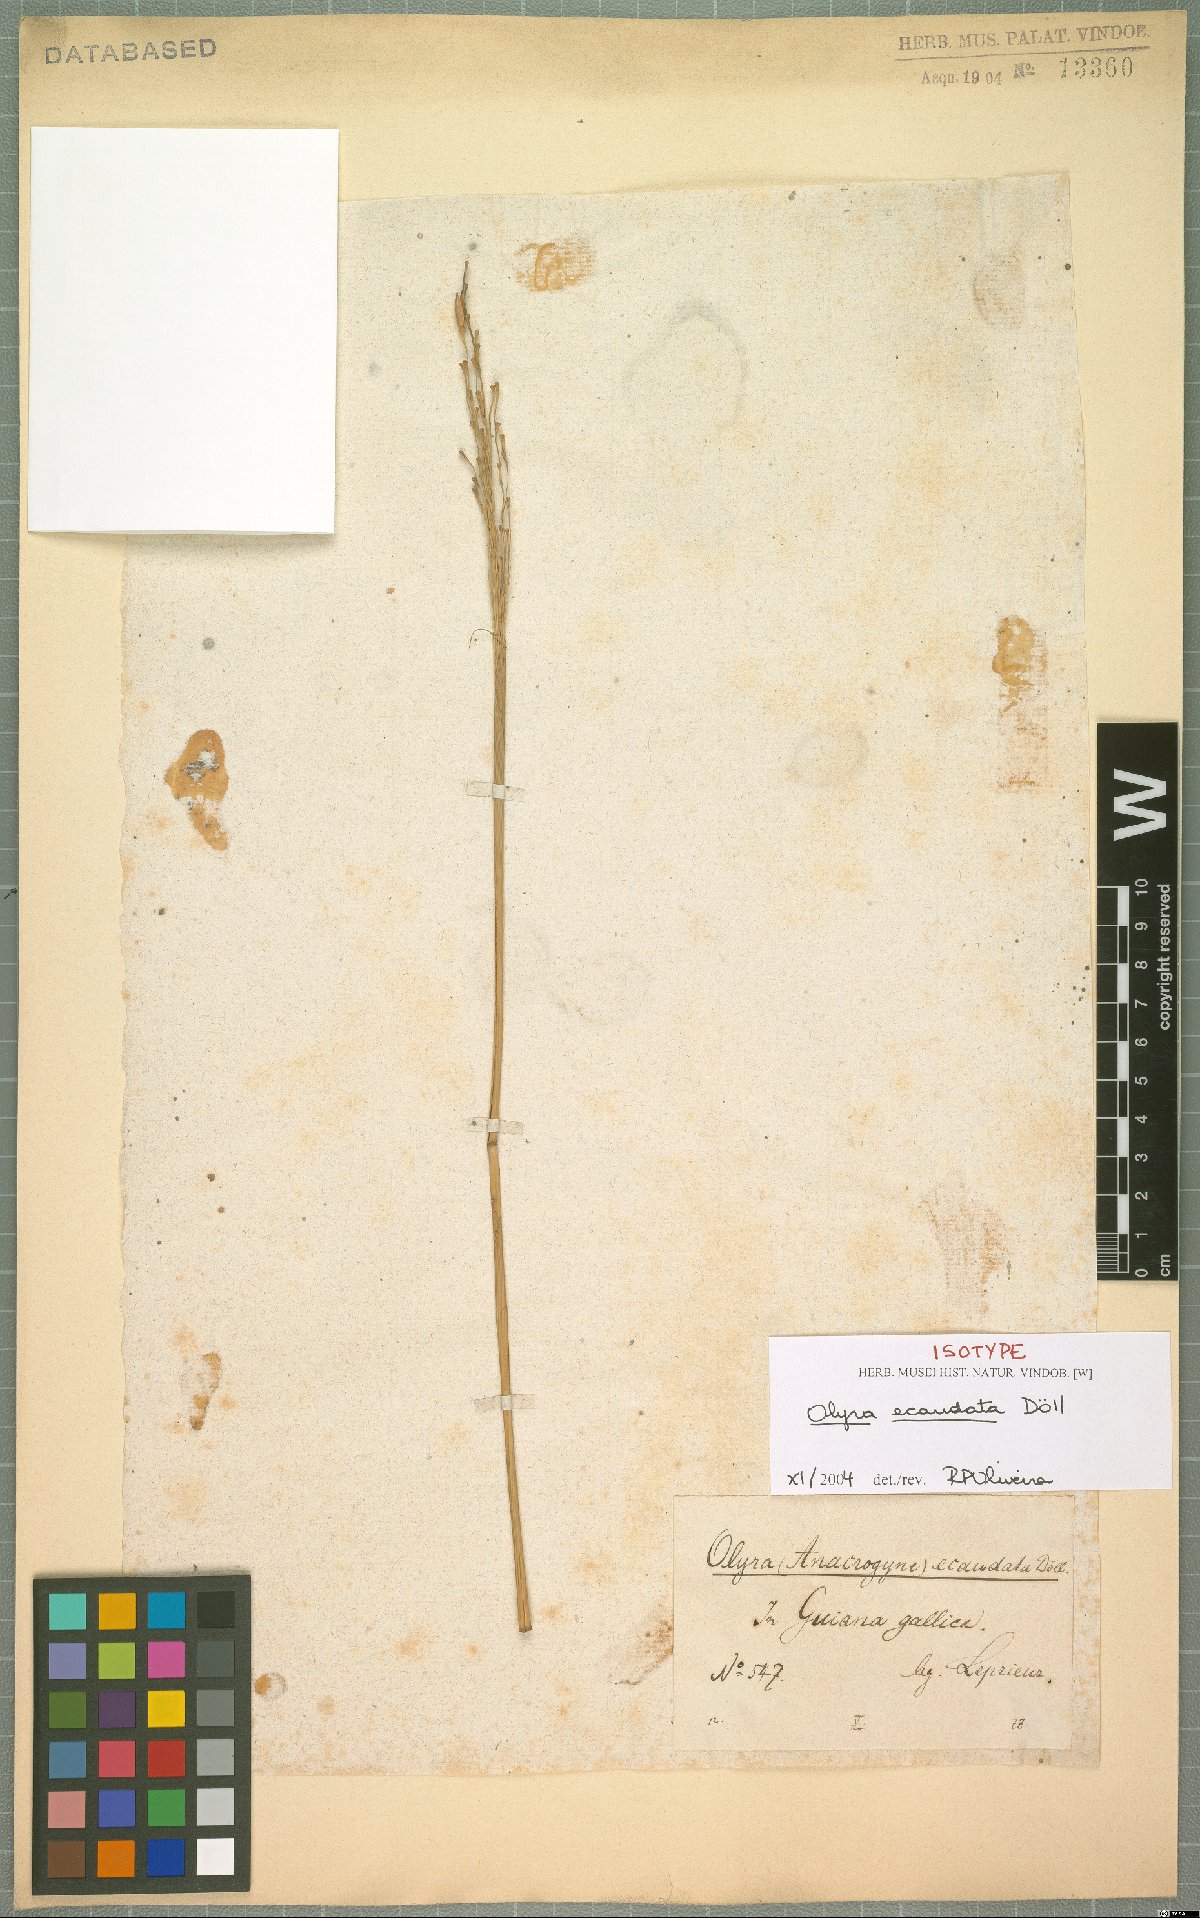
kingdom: Plantae
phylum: Tracheophyta
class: Liliopsida
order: Poales
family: Poaceae
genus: Olyra
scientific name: Olyra ecaudata
